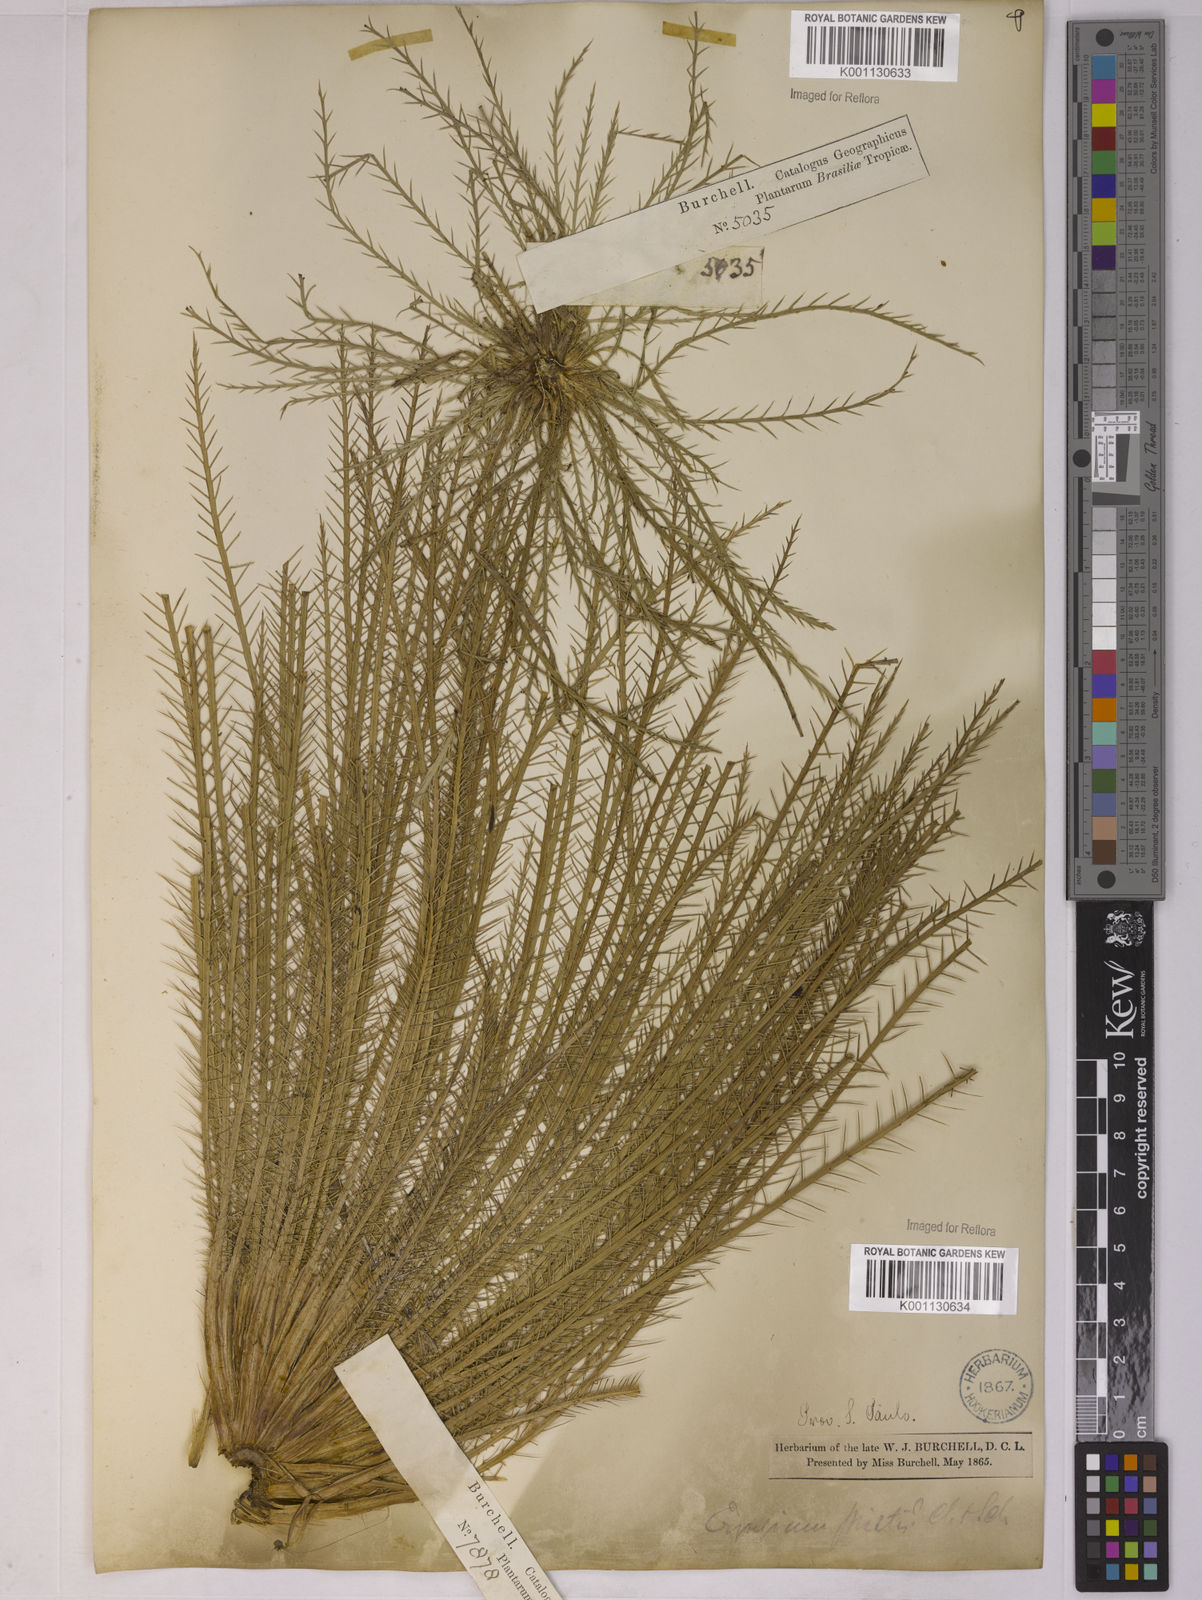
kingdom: Plantae
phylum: Tracheophyta
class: Magnoliopsida
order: Apiales
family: Apiaceae
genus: Eryngium
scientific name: Eryngium pristis
